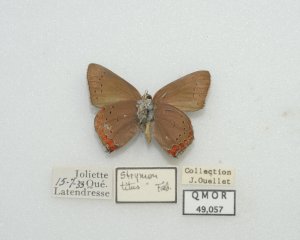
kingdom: Animalia
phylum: Arthropoda
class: Insecta
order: Lepidoptera
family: Lycaenidae
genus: Harkenclenus
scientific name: Harkenclenus titus
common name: Coral Hairstreak
